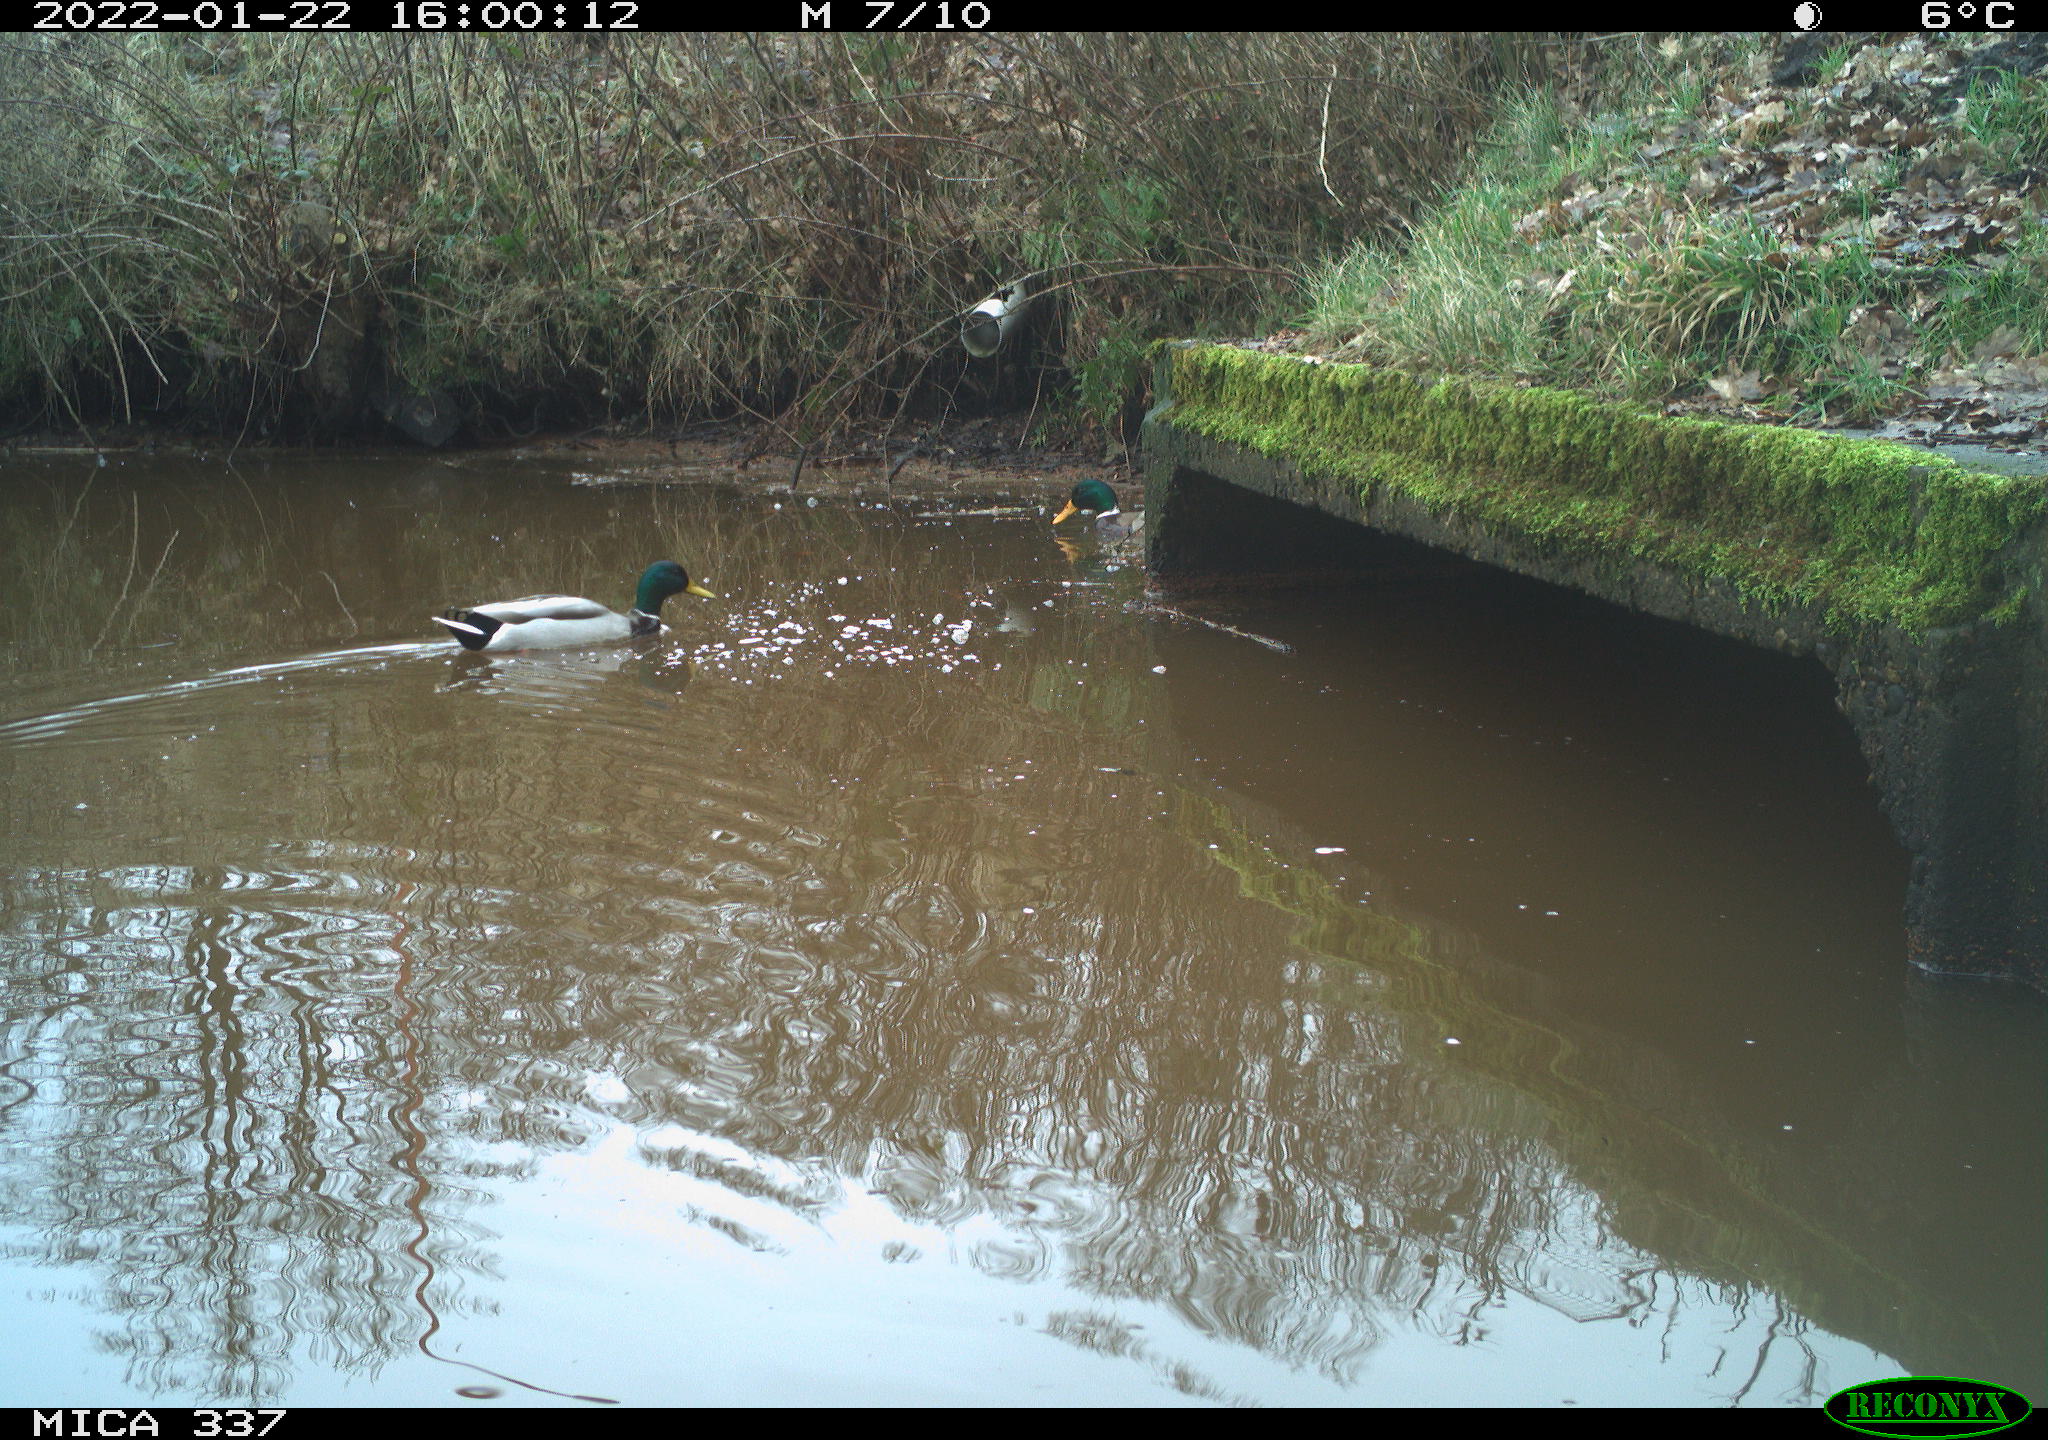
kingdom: Animalia
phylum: Chordata
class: Aves
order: Anseriformes
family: Anatidae
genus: Anas
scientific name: Anas platyrhynchos
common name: Mallard
